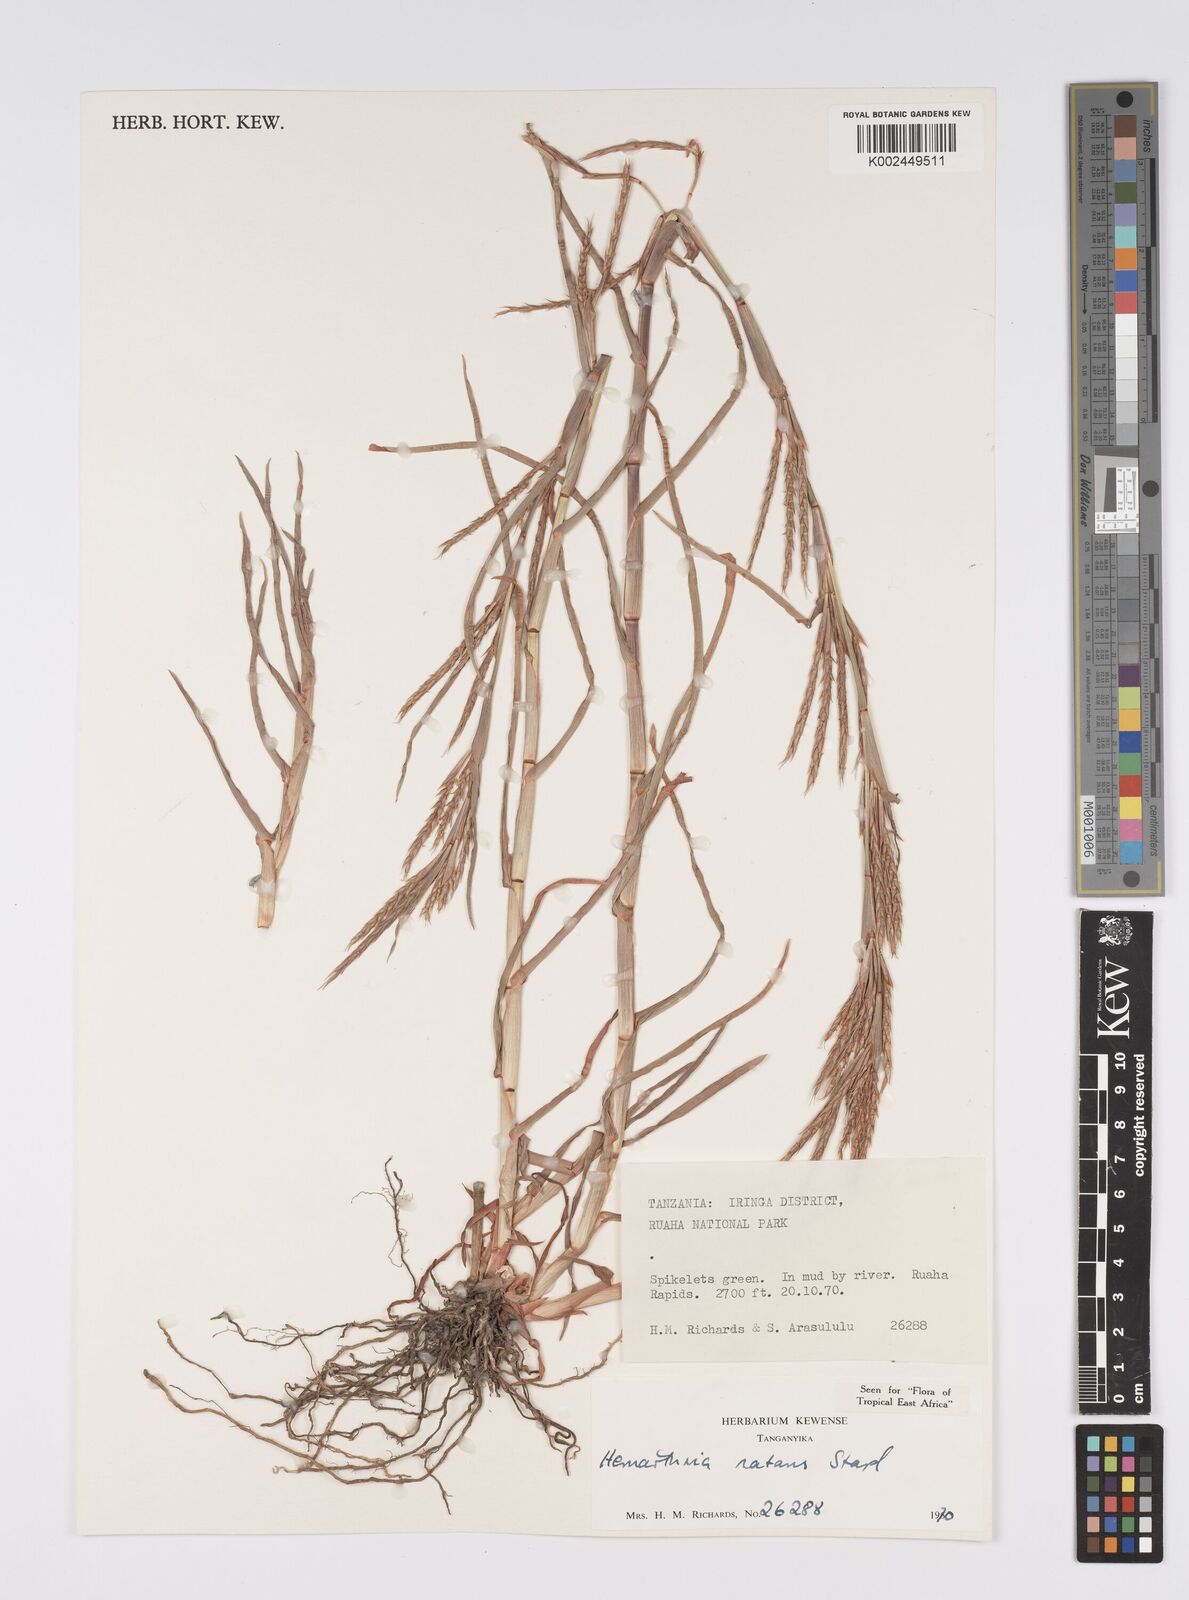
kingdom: Plantae
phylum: Tracheophyta
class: Liliopsida
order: Poales
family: Poaceae
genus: Hemarthria
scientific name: Hemarthria natans
